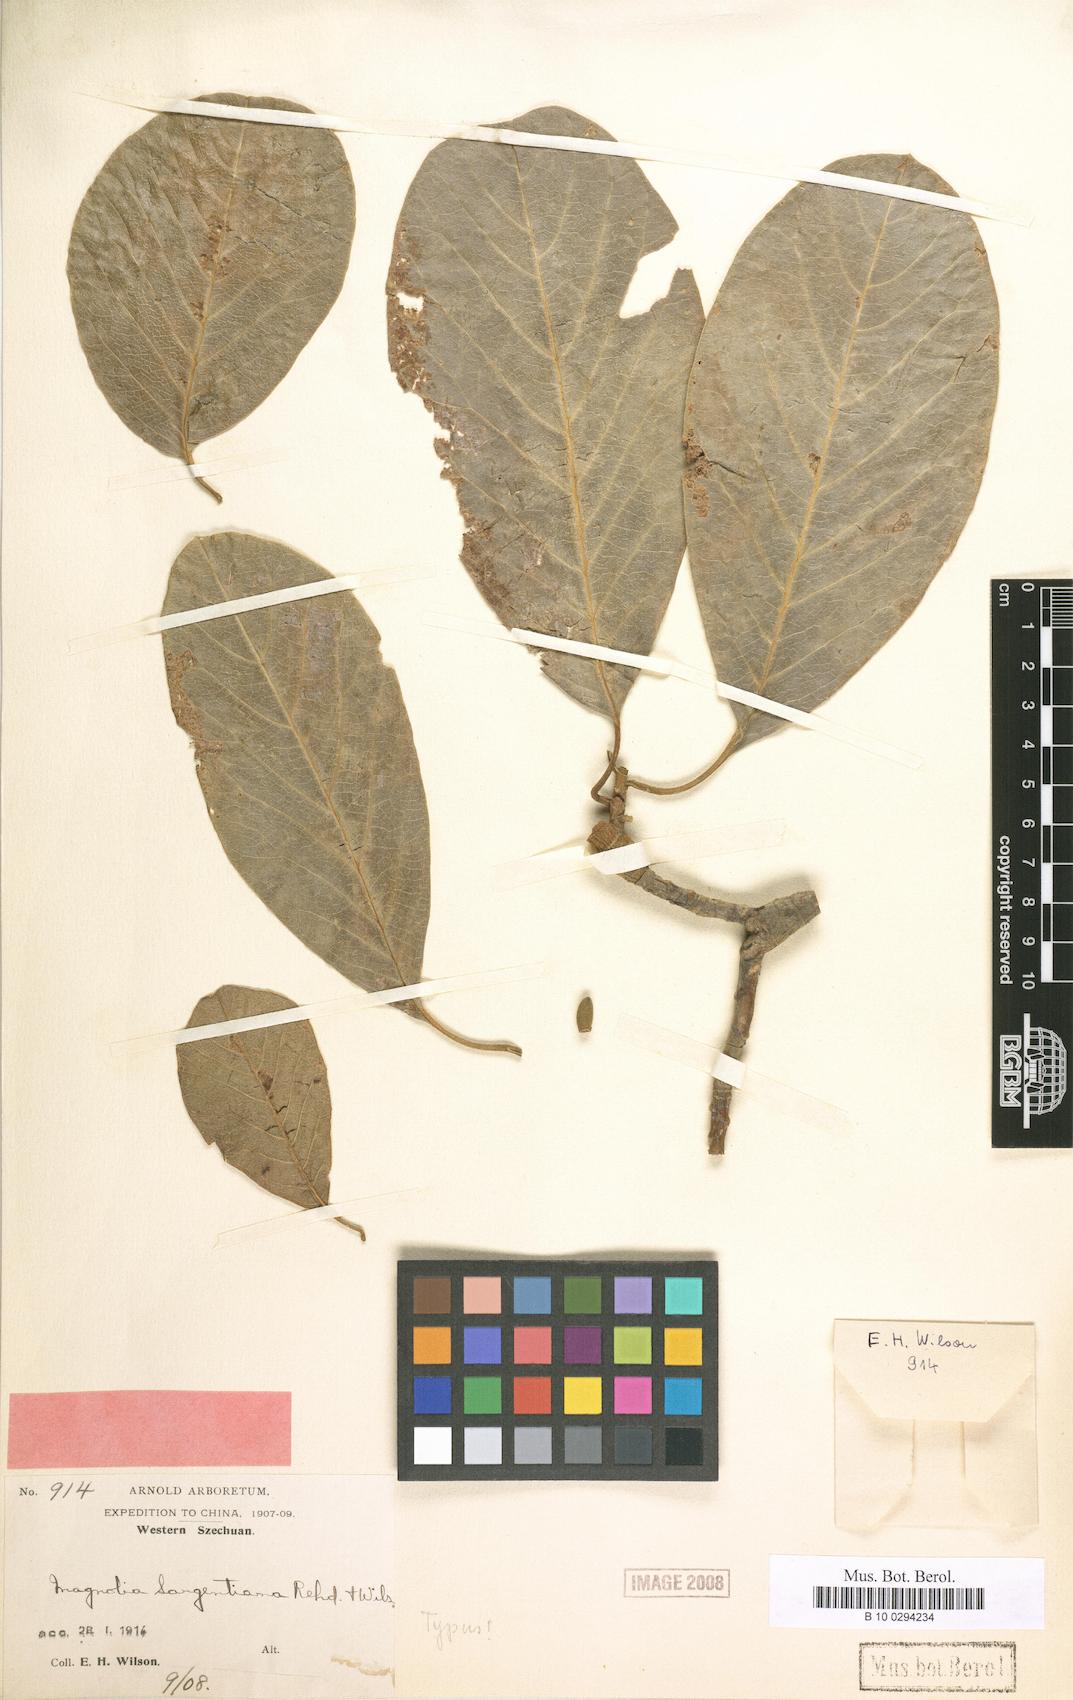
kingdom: Plantae
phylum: Tracheophyta
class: Magnoliopsida
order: Magnoliales
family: Magnoliaceae
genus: Magnolia
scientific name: Magnolia sargentiana
